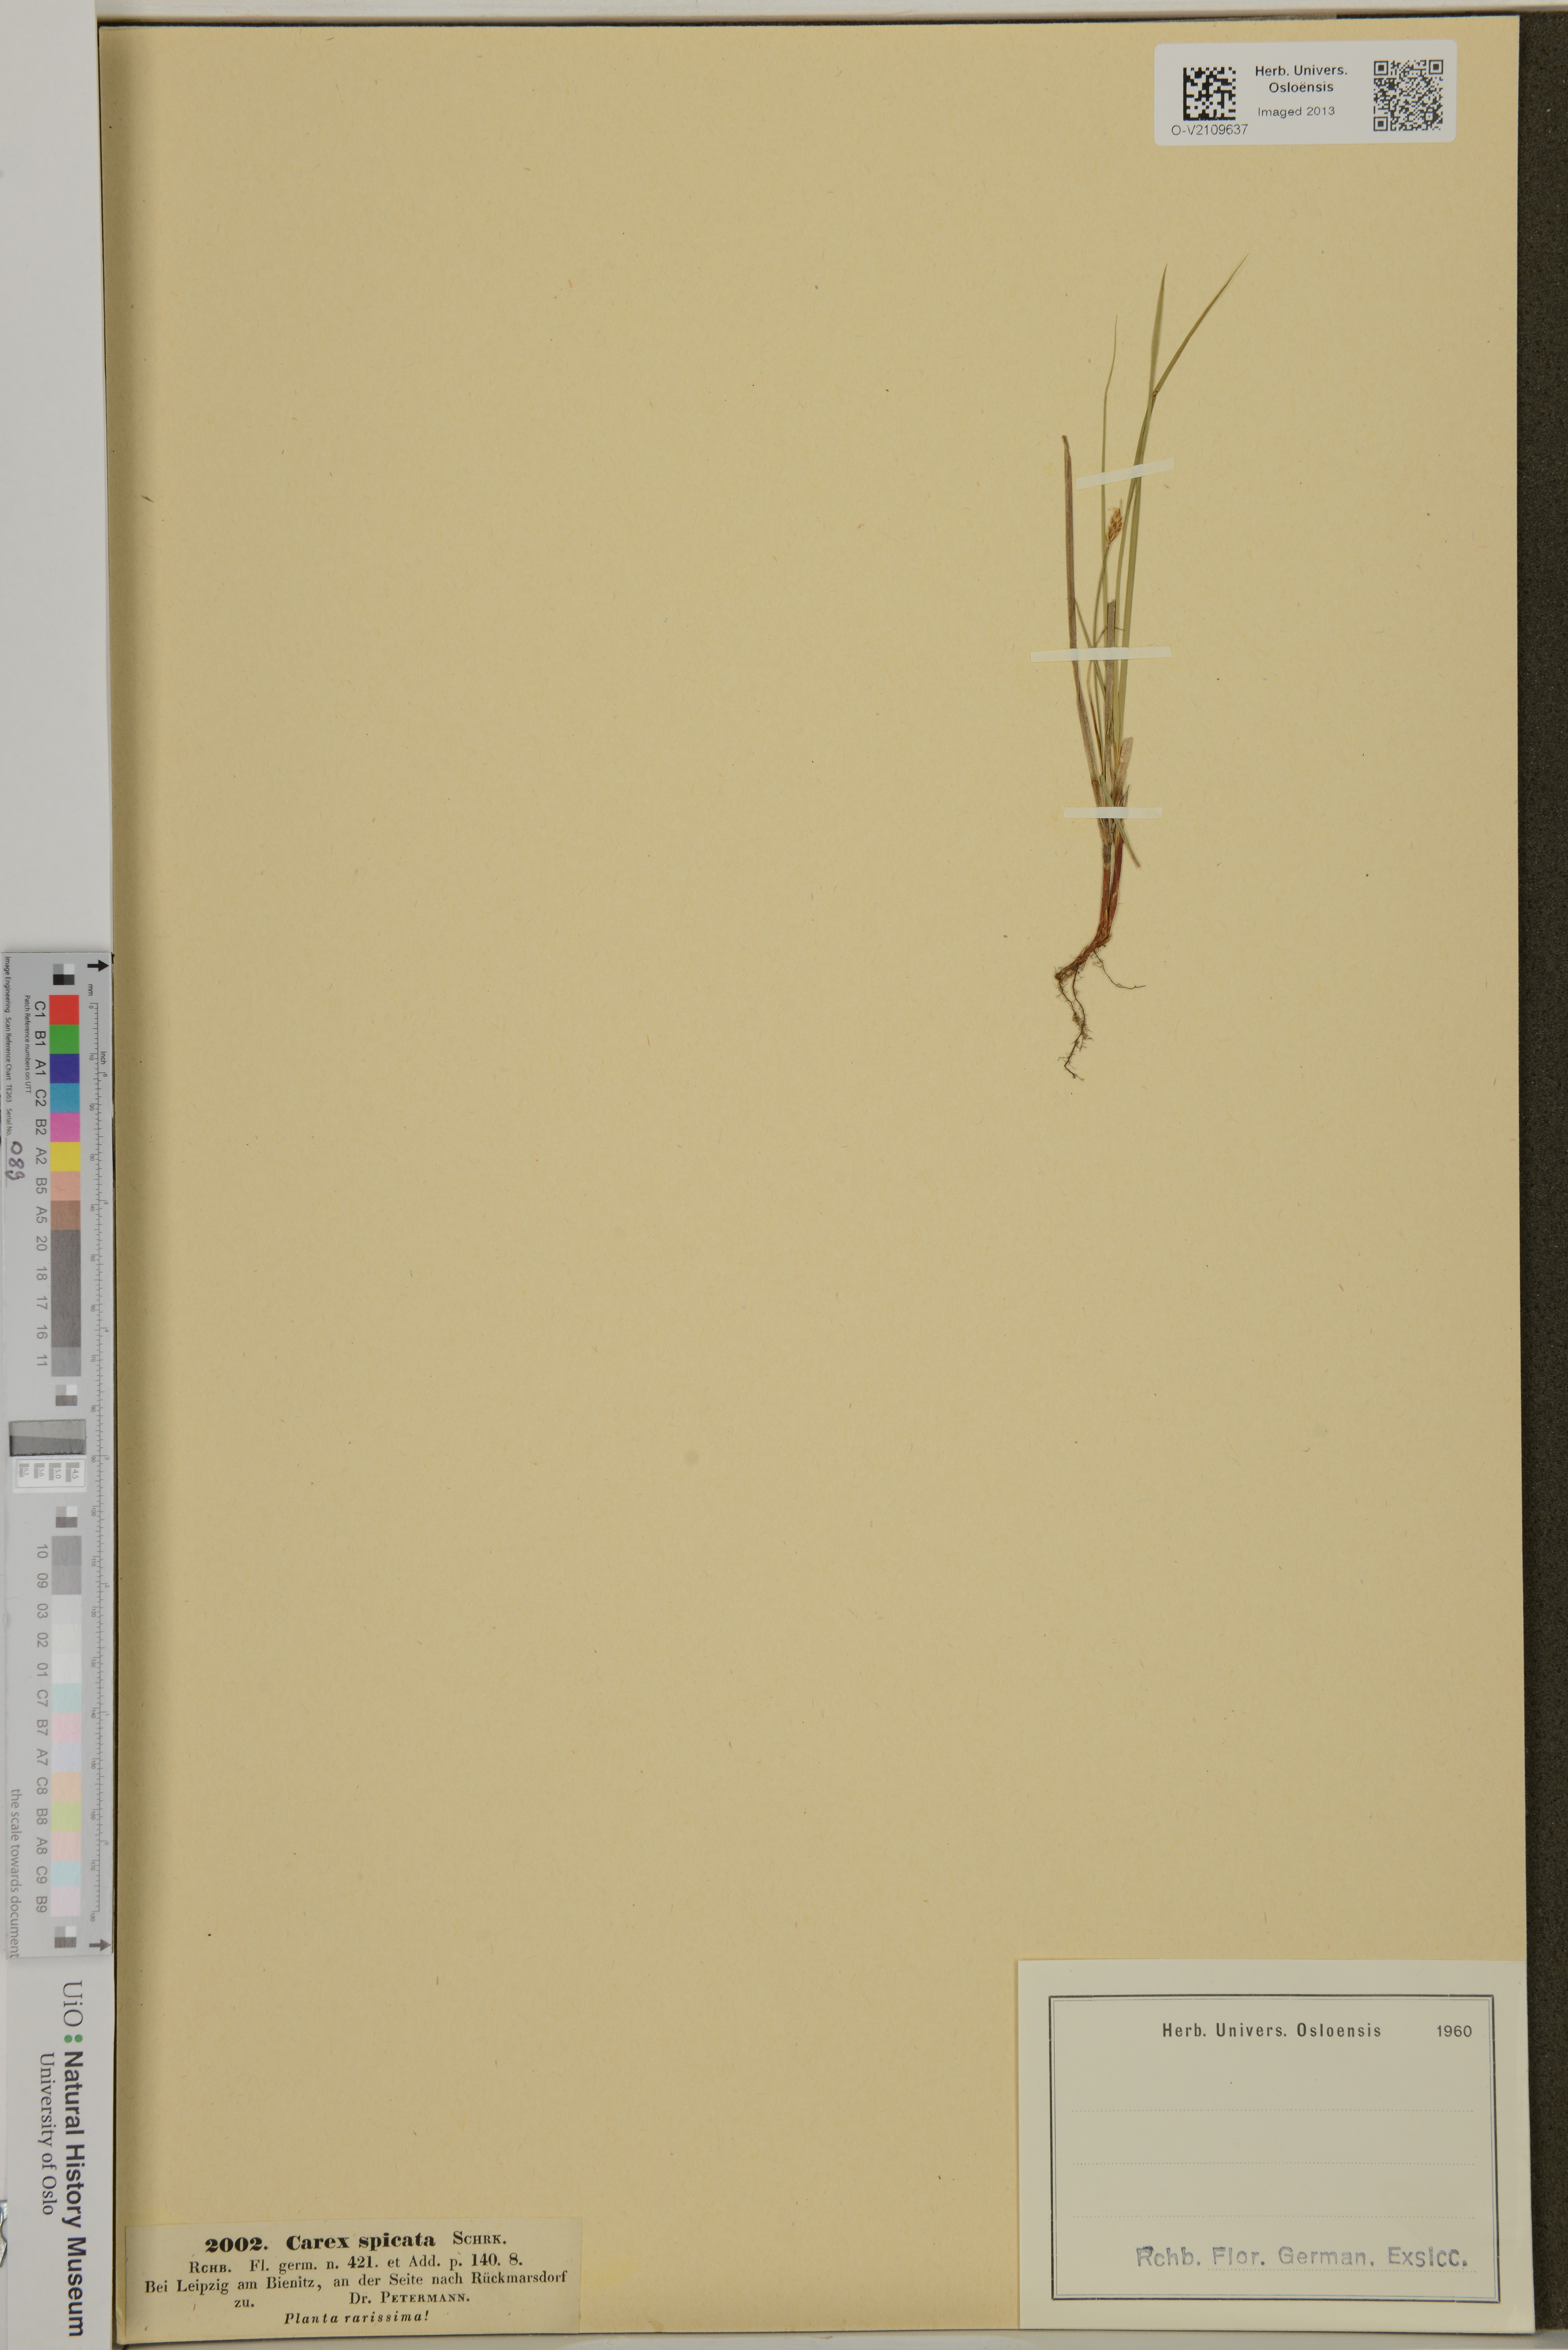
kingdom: Plantae
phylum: Tracheophyta
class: Liliopsida
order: Poales
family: Cyperaceae
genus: Carex
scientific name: Carex spicata
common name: Spiked sedge
